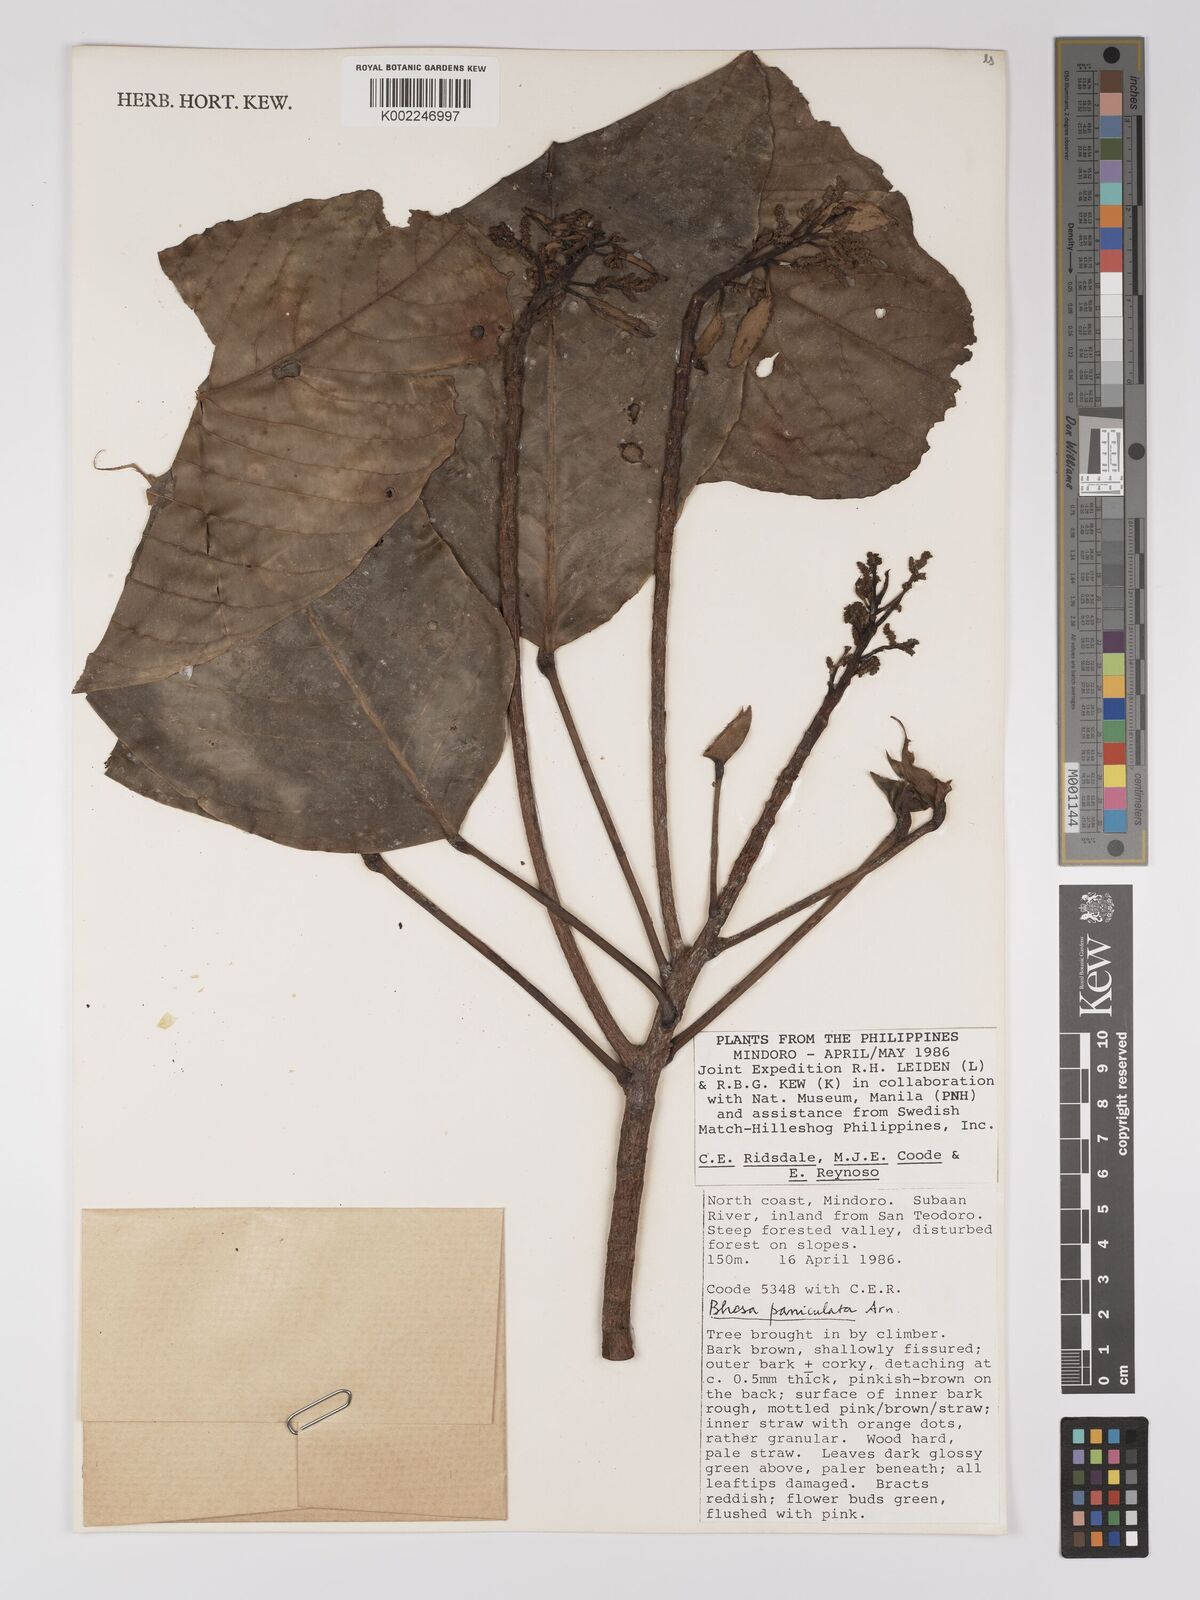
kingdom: Plantae
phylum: Tracheophyta
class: Magnoliopsida
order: Malpighiales
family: Centroplacaceae
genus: Bhesa
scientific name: Bhesa paniculata
